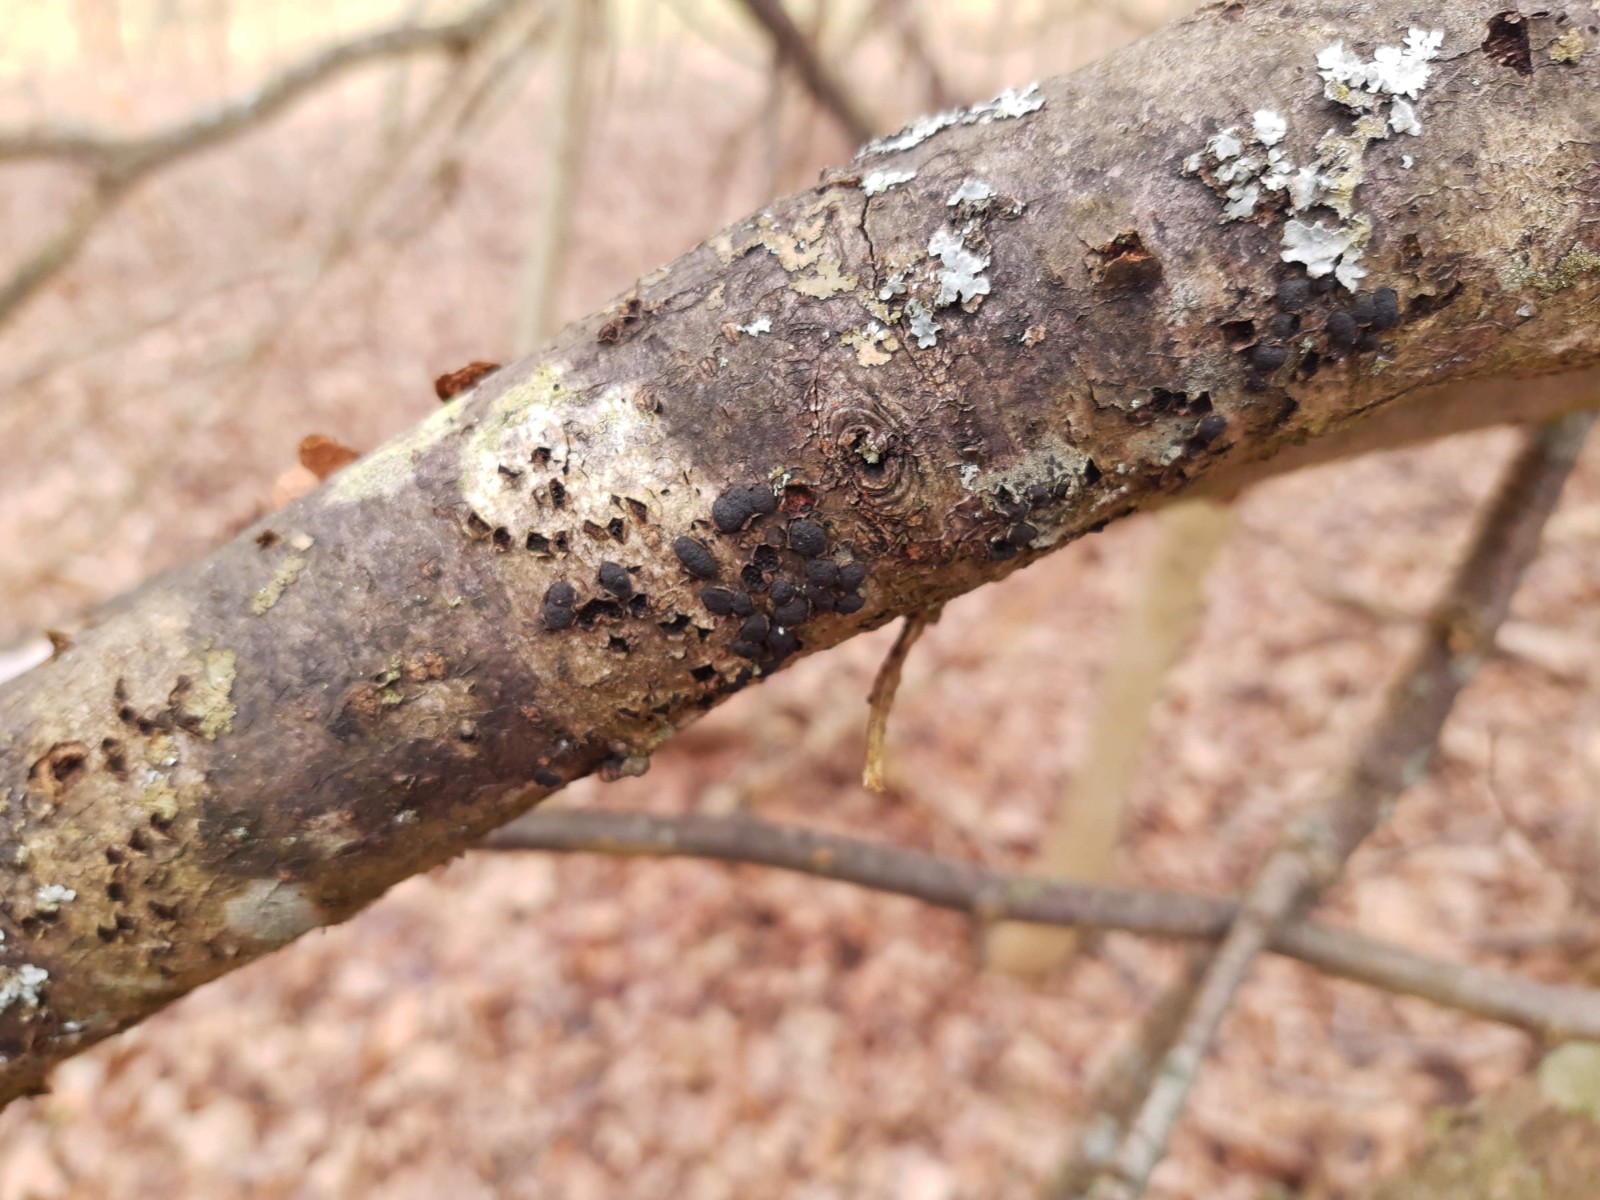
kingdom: Fungi
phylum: Ascomycota
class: Sordariomycetes
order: Xylariales
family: Diatrypaceae
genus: Diatrypella
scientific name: Diatrypella quercina
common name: ege-kulskorpe
